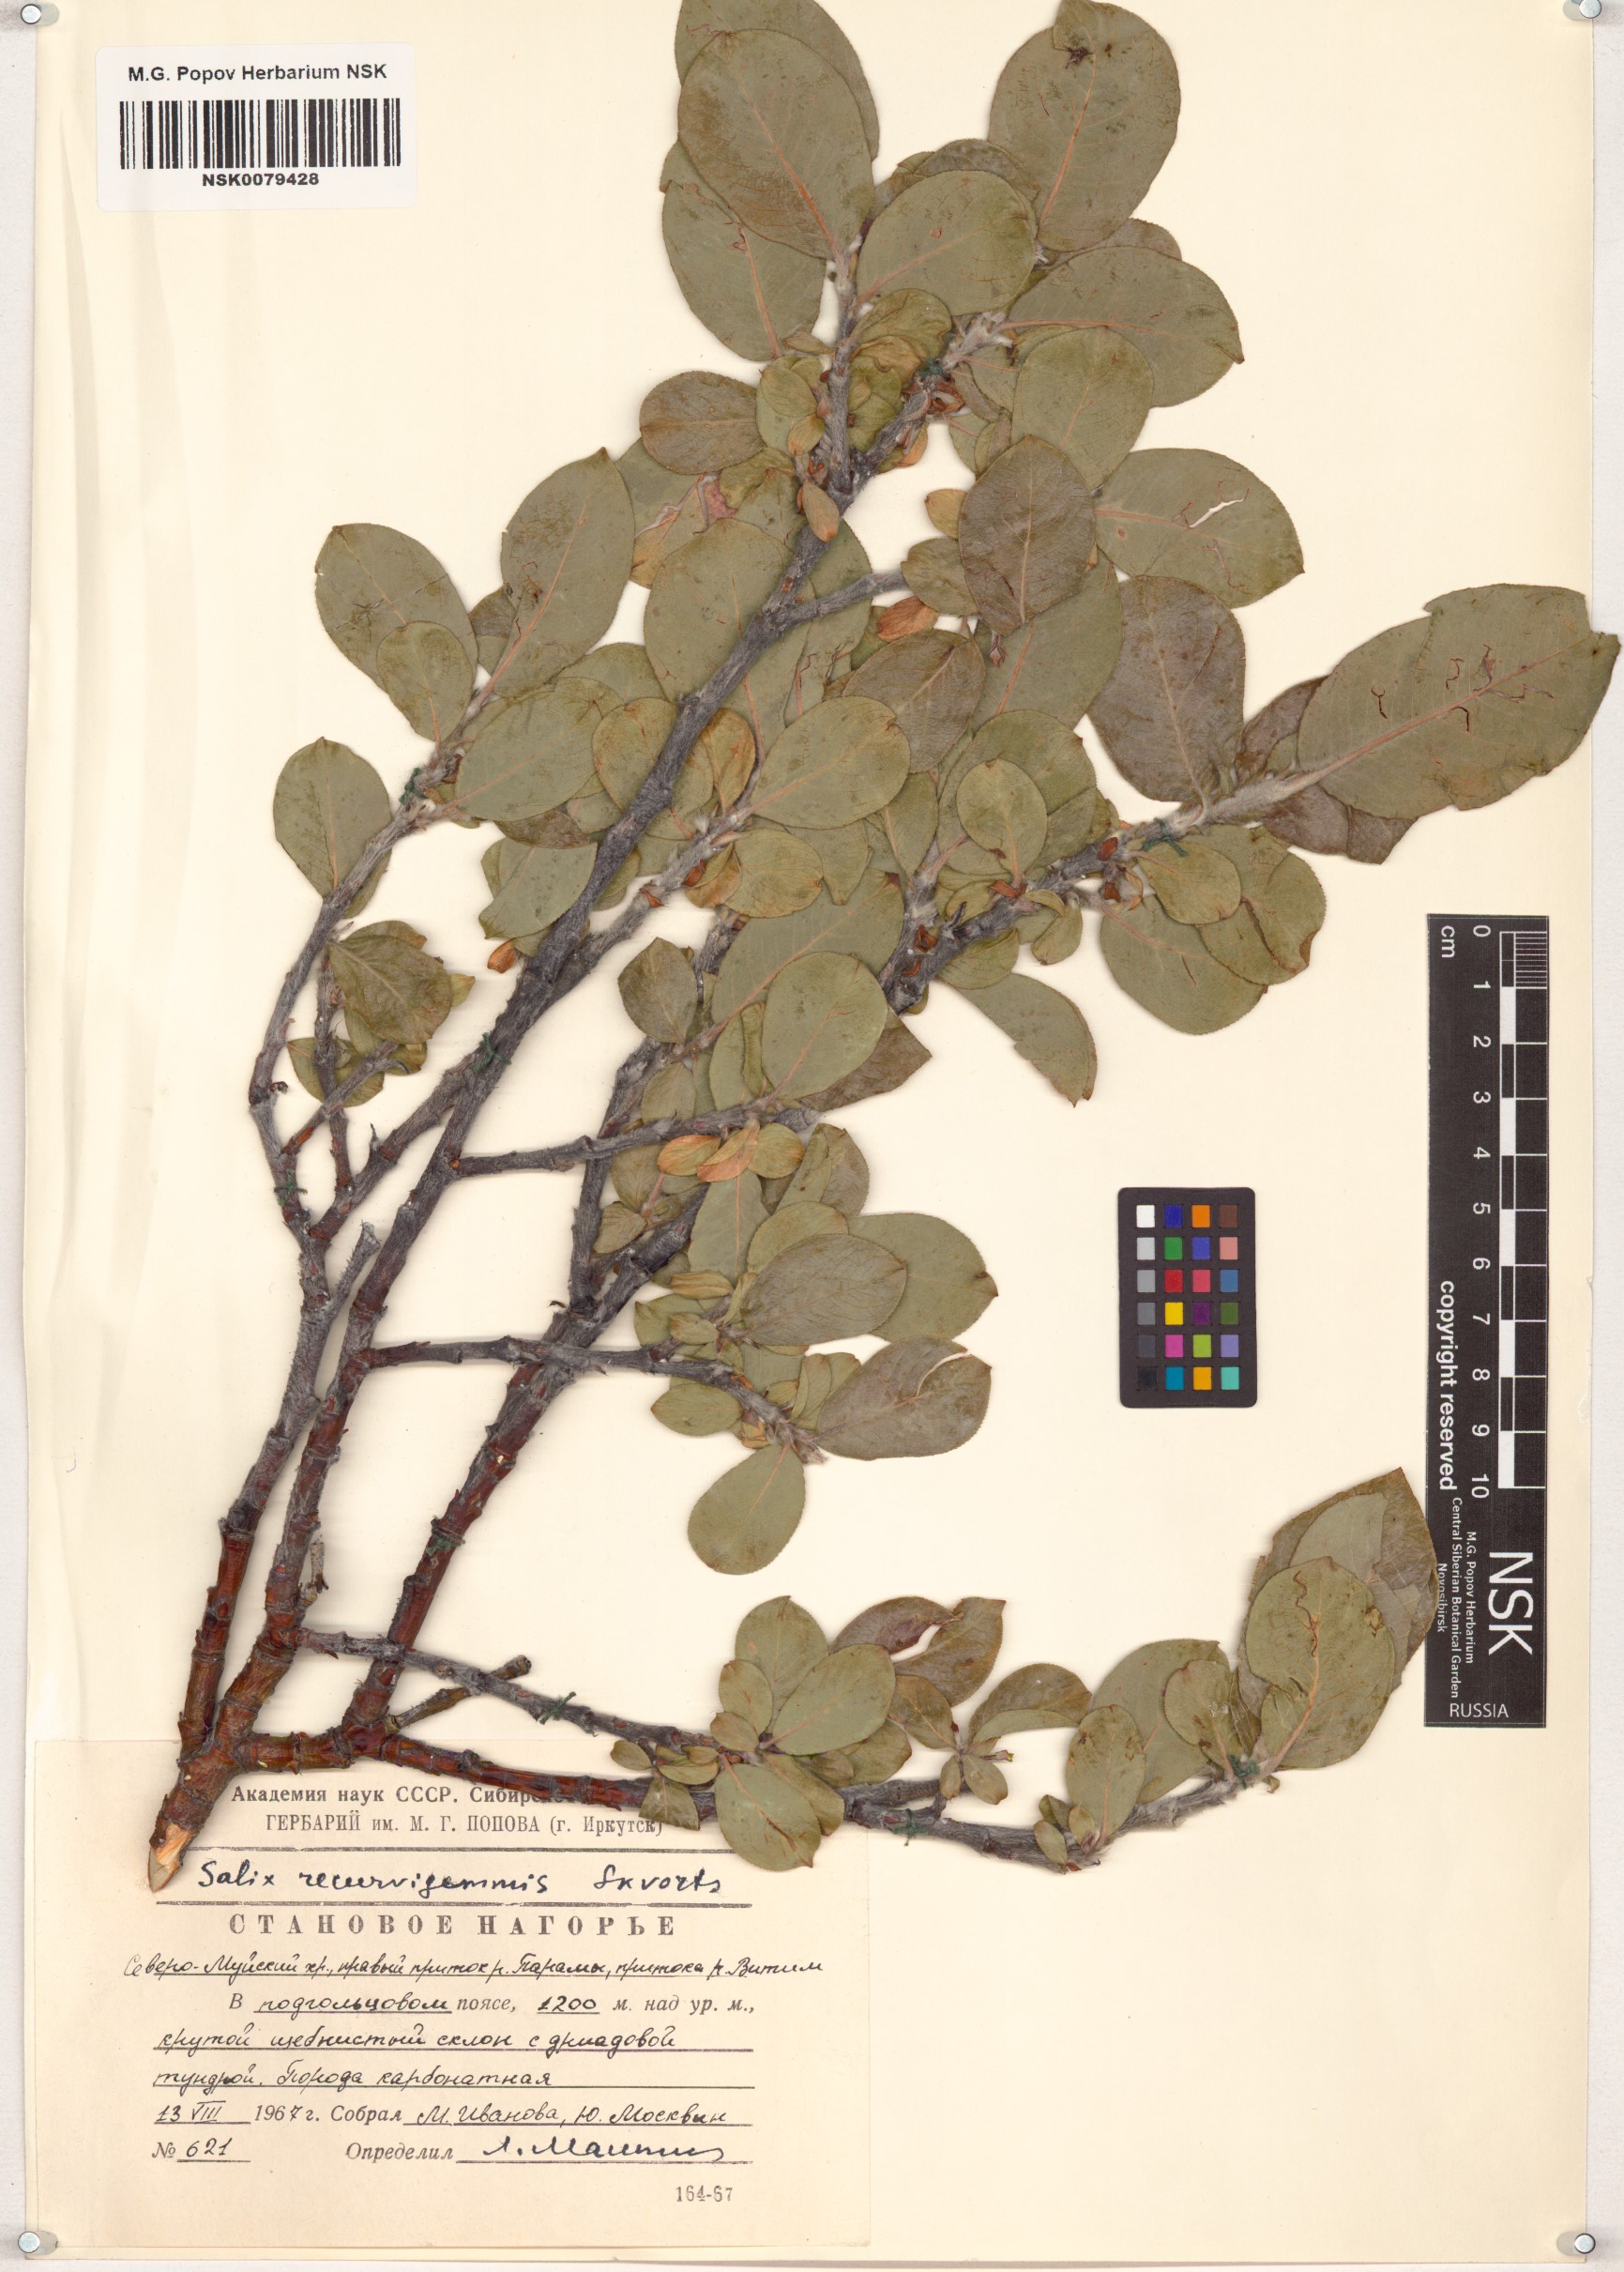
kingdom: Plantae
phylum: Tracheophyta
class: Magnoliopsida
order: Malpighiales
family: Salicaceae
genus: Salix
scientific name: Salix recurvigemmata
